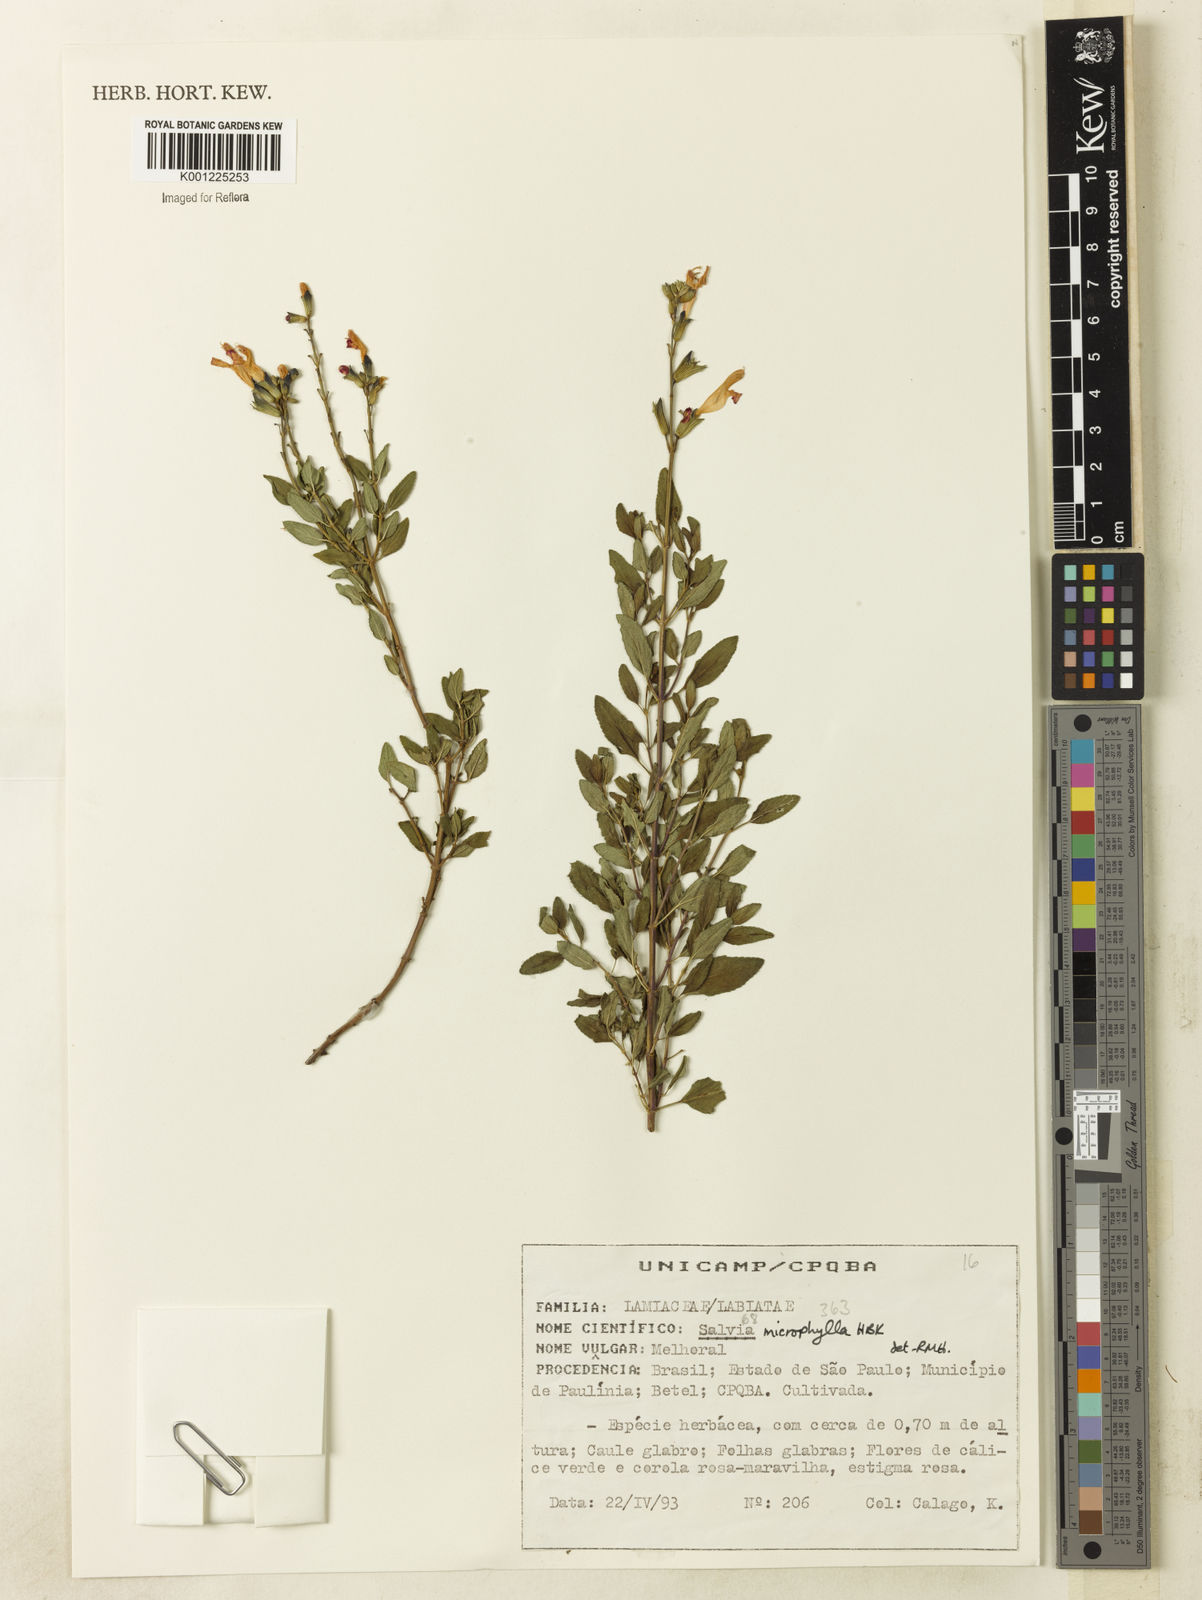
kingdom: Plantae
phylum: Tracheophyta
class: Magnoliopsida
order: Lamiales
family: Lamiaceae
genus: Salvia
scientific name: Salvia microphylla
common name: Baby sage
